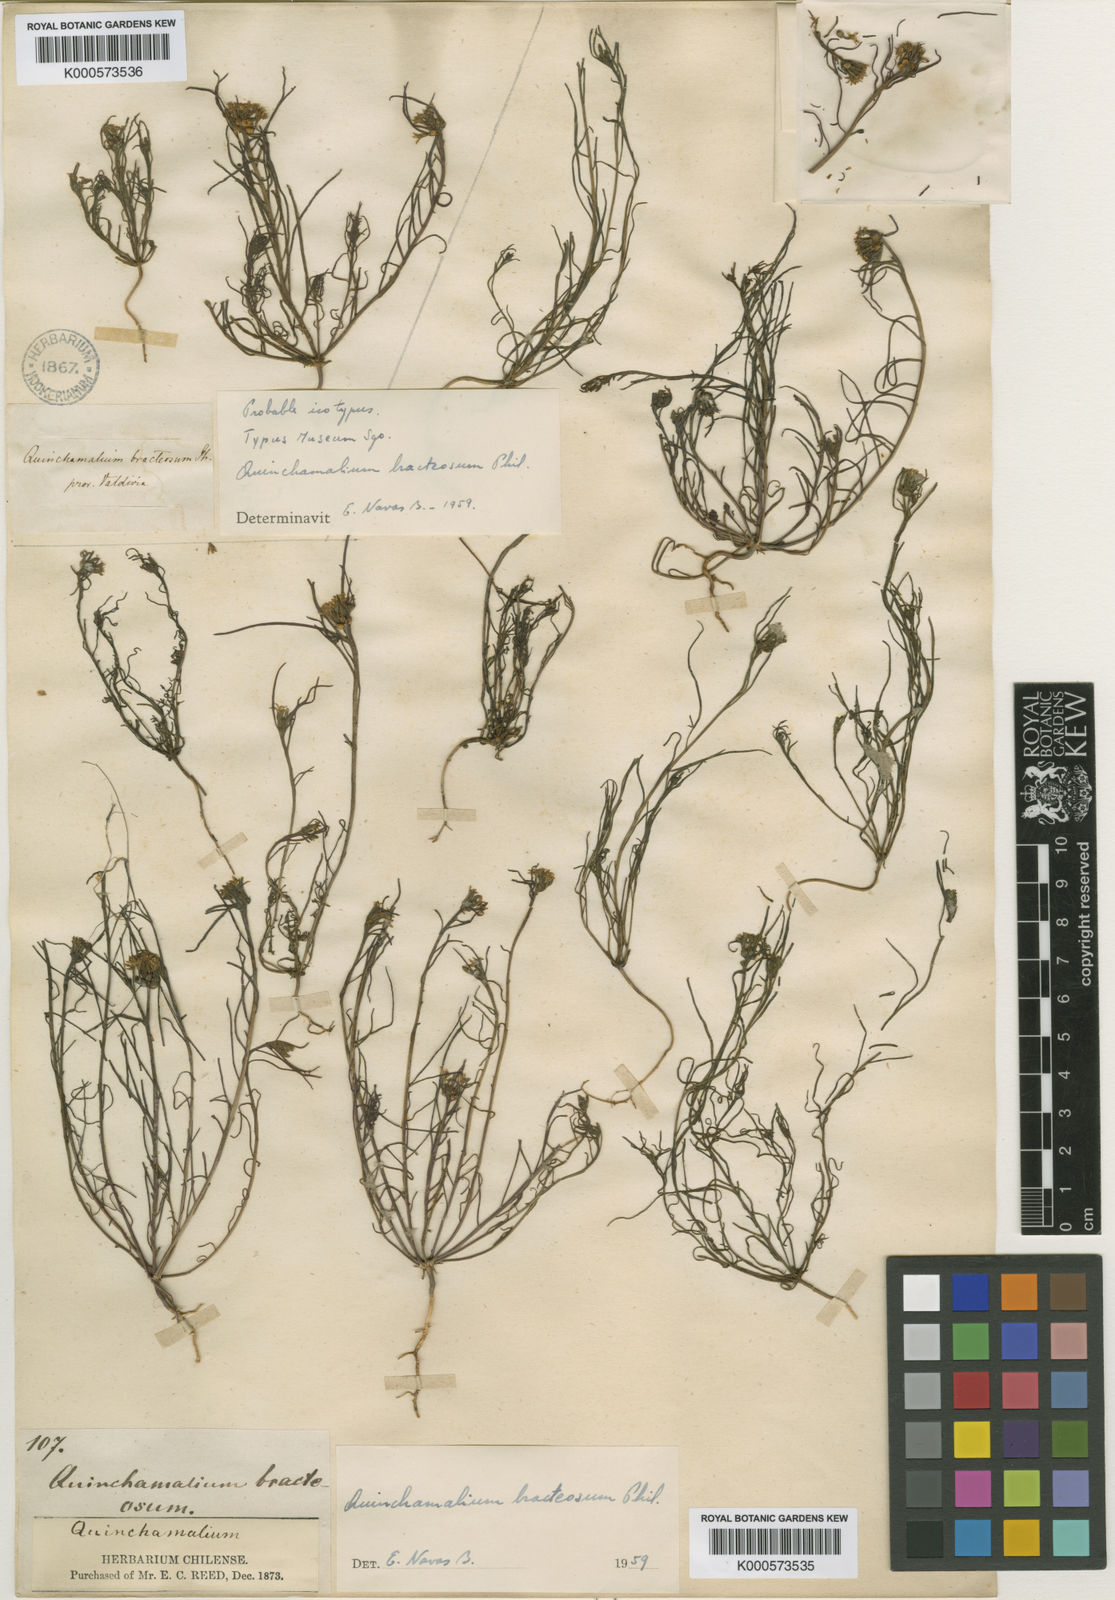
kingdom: Plantae
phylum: Tracheophyta
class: Magnoliopsida
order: Santalales
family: Schoepfiaceae
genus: Quinchamalium
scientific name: Quinchamalium chilense
